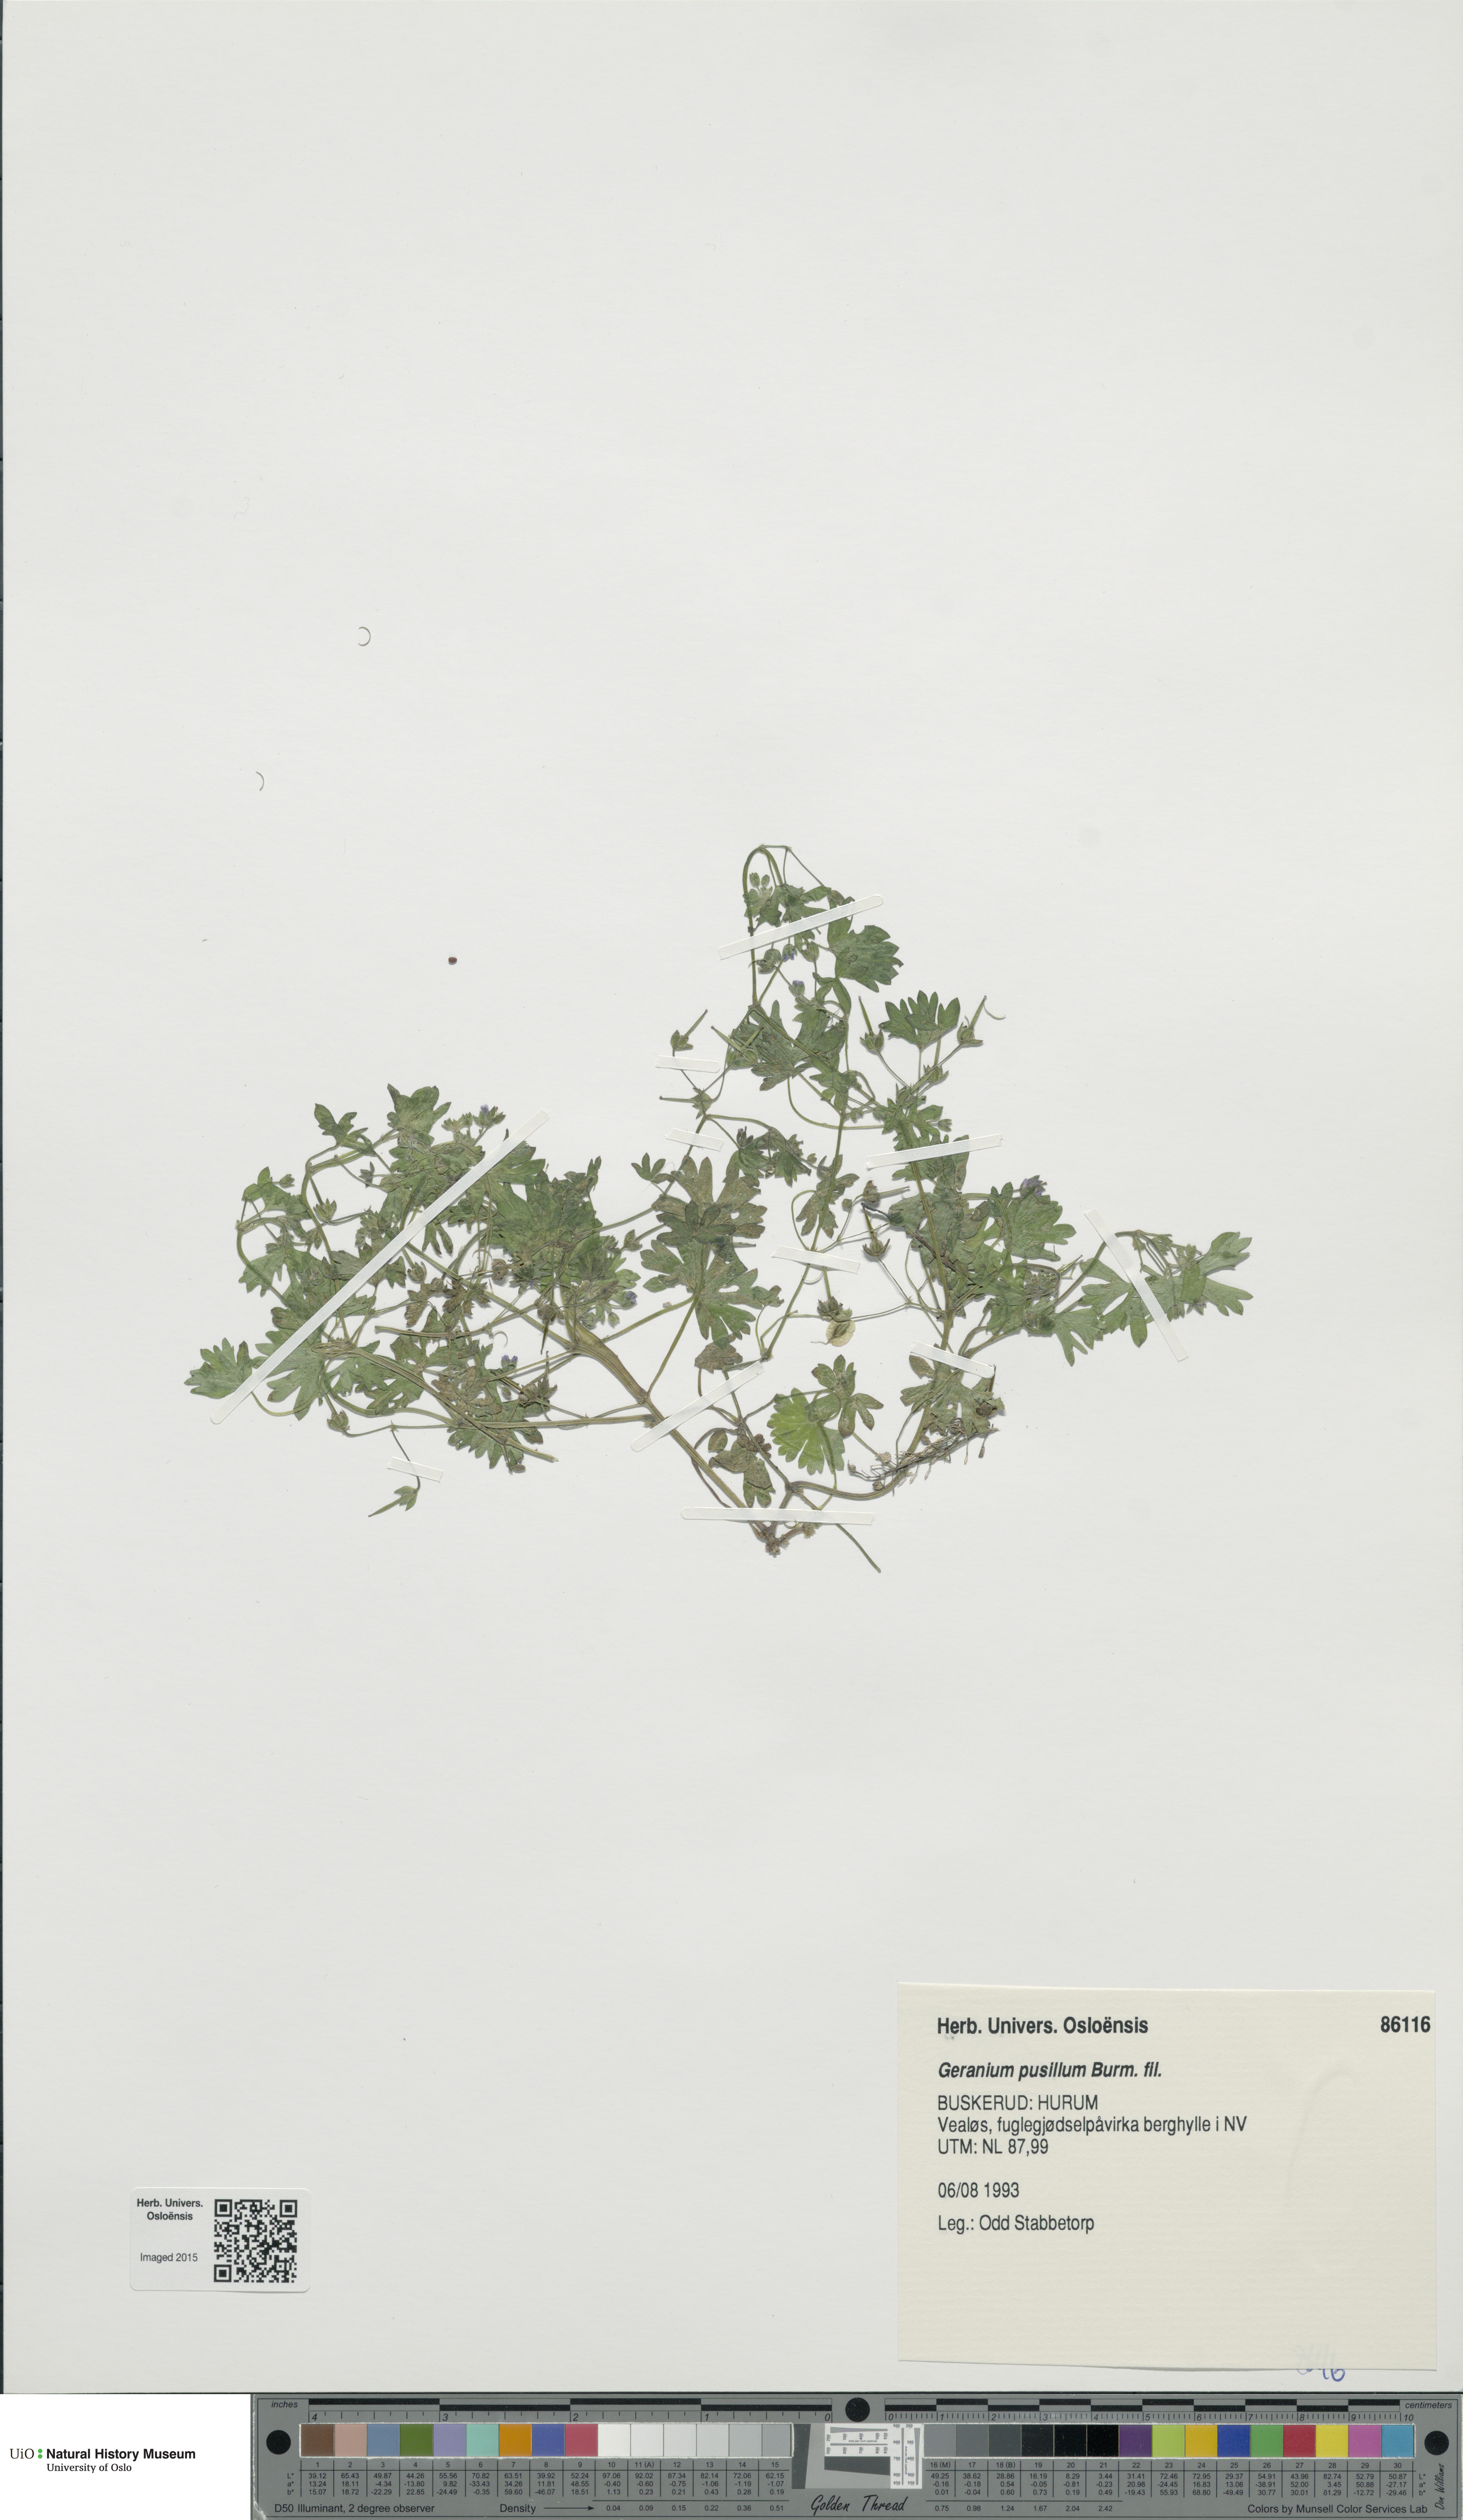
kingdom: Plantae
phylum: Tracheophyta
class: Magnoliopsida
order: Geraniales
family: Geraniaceae
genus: Geranium
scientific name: Geranium pusillum
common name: Small geranium
